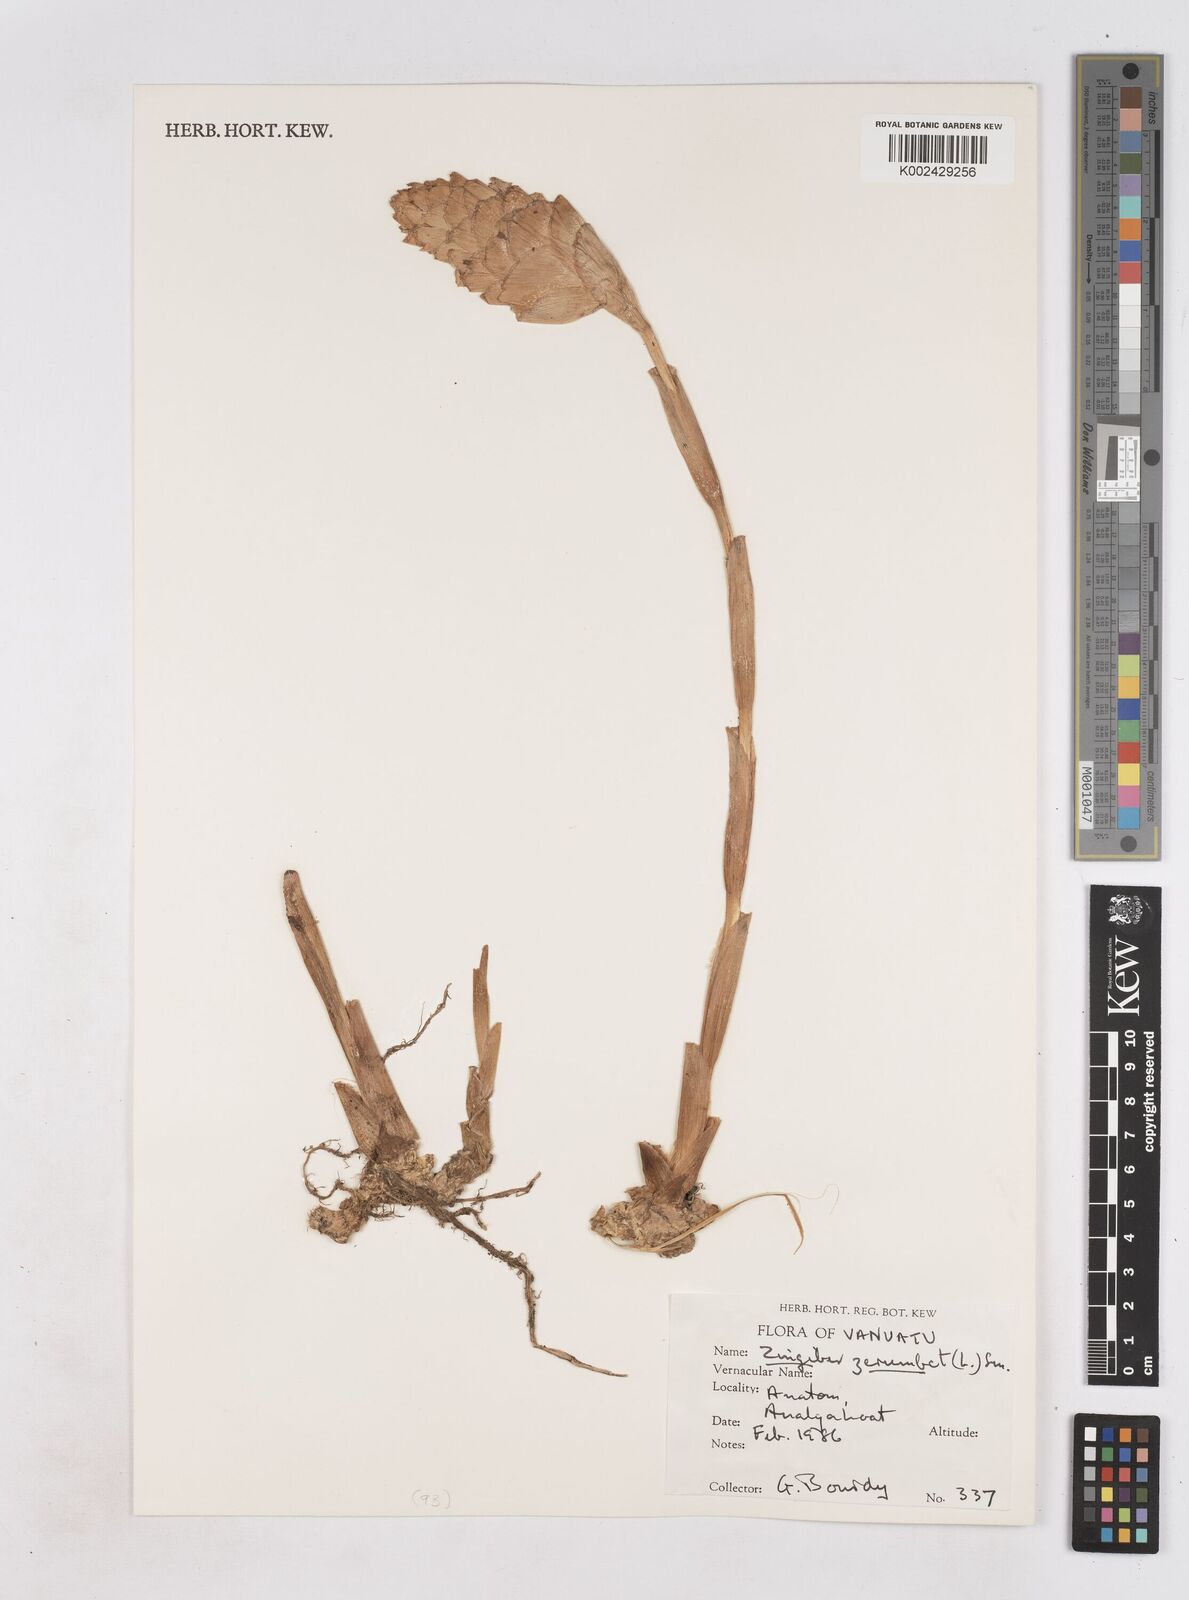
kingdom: Plantae
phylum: Tracheophyta
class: Liliopsida
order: Zingiberales
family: Zingiberaceae
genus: Zingiber
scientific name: Zingiber zerumbet
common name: Bitter ginger
